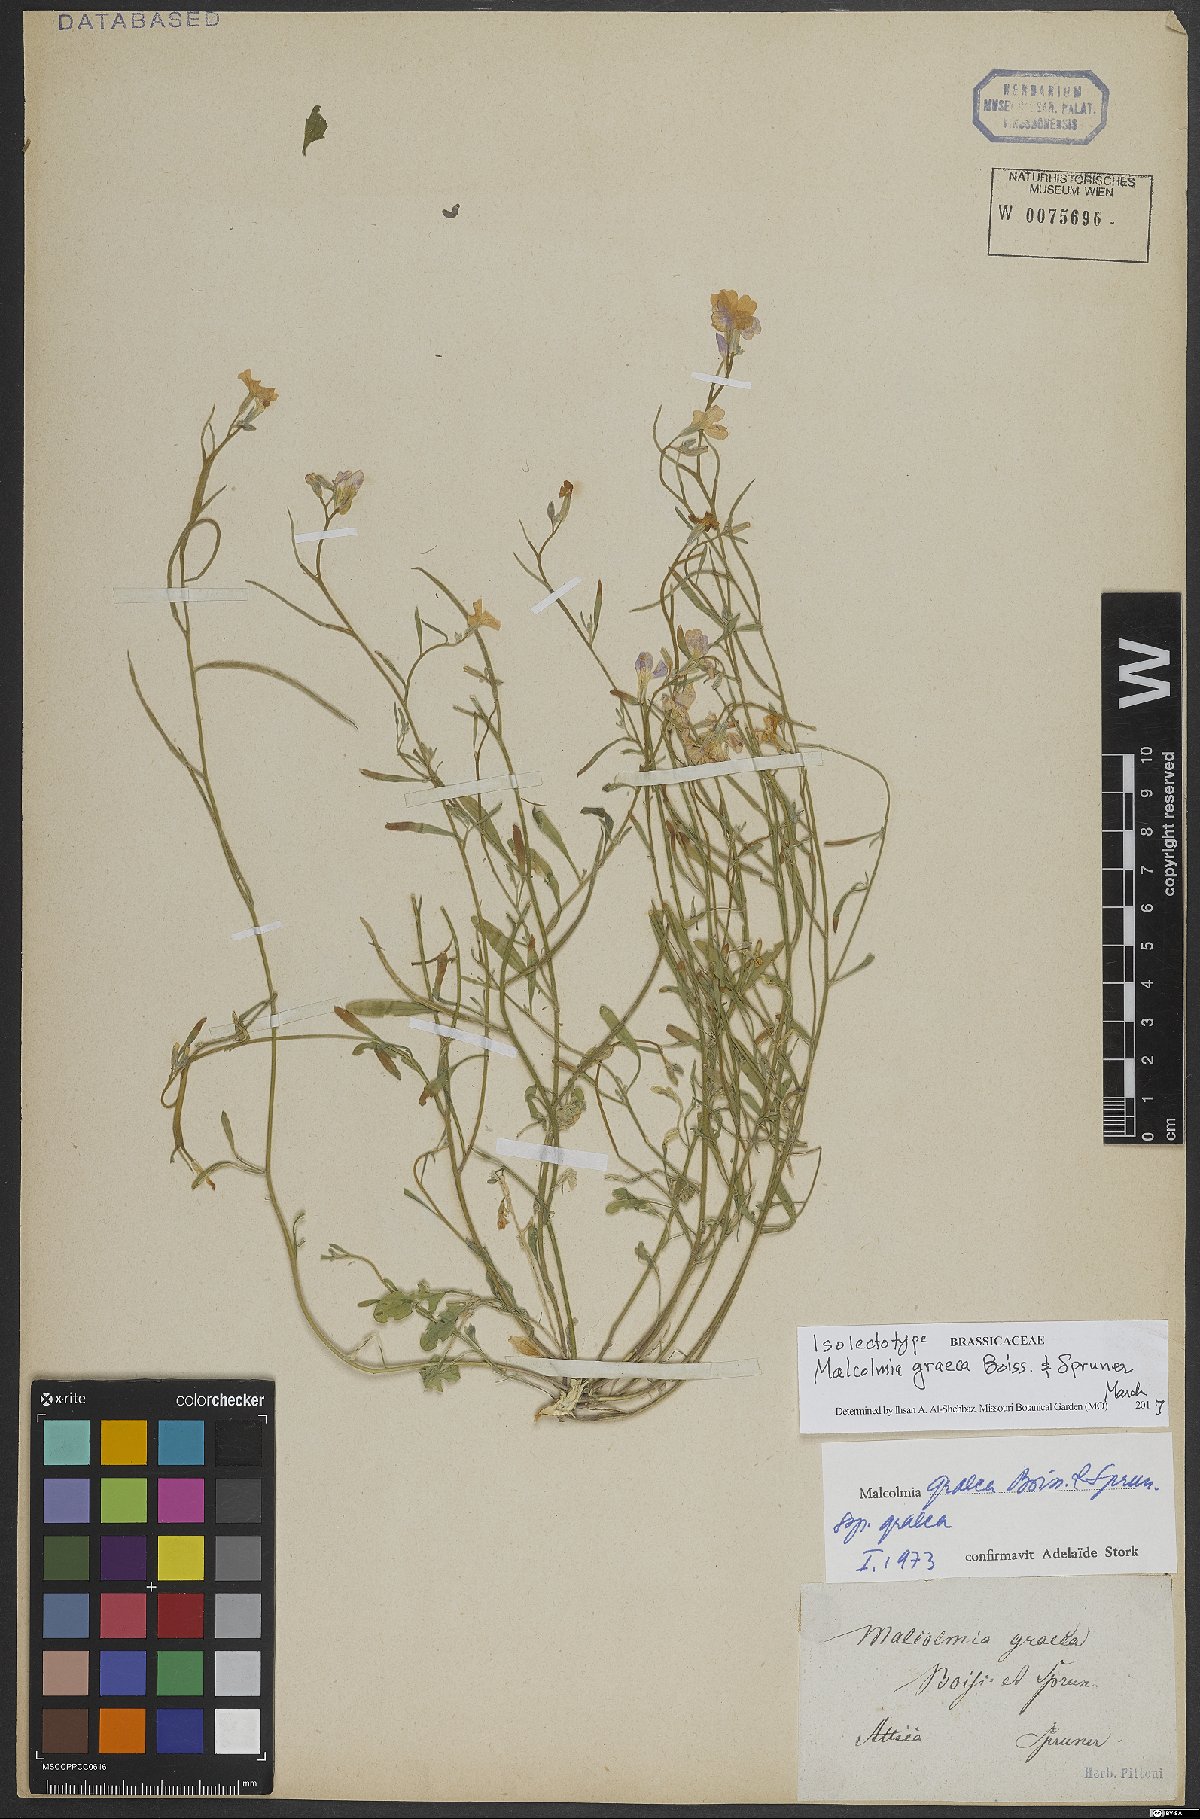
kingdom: Plantae
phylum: Tracheophyta
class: Magnoliopsida
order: Brassicales
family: Brassicaceae
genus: Malcolmia
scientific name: Malcolmia graeca
